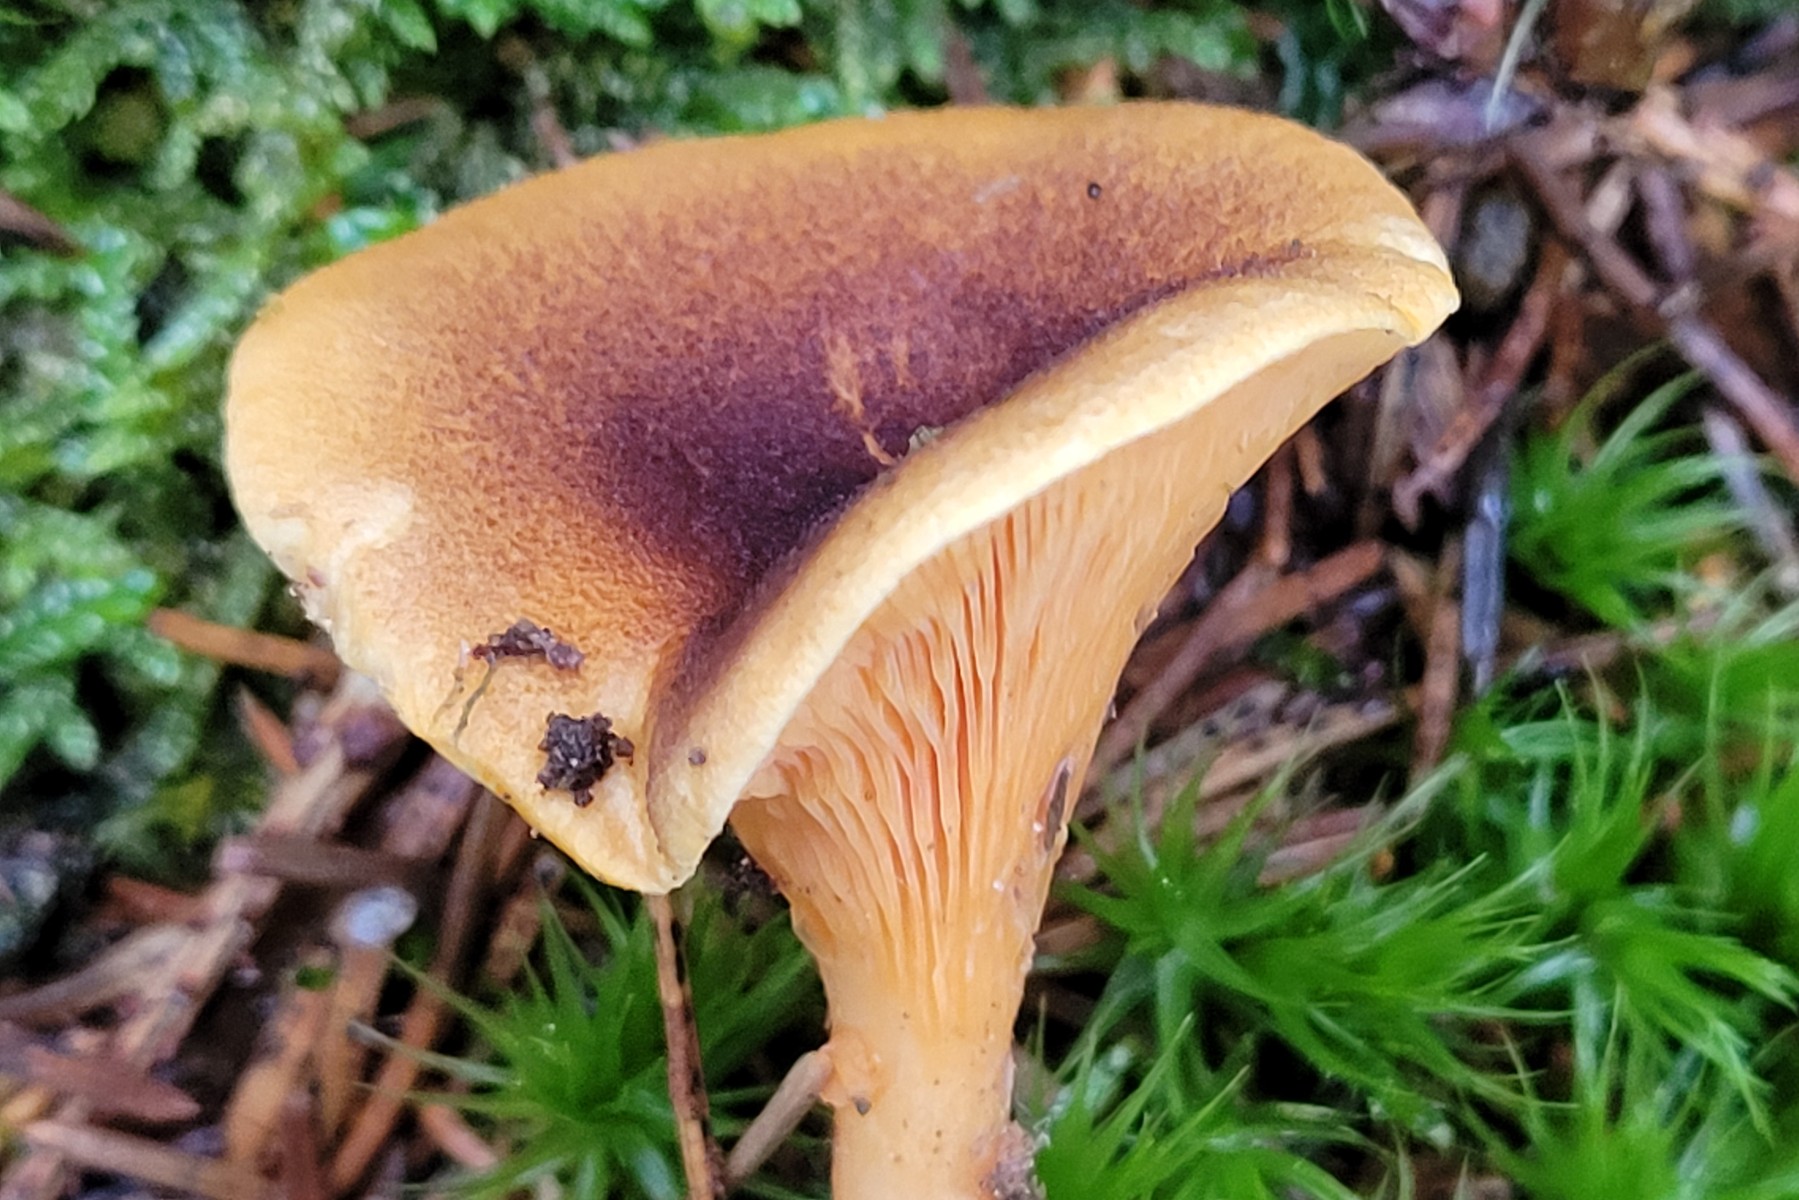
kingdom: Fungi
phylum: Basidiomycota
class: Agaricomycetes
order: Boletales
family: Hygrophoropsidaceae
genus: Hygrophoropsis
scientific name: Hygrophoropsis rufa
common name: brunfiltet orangekantarel
